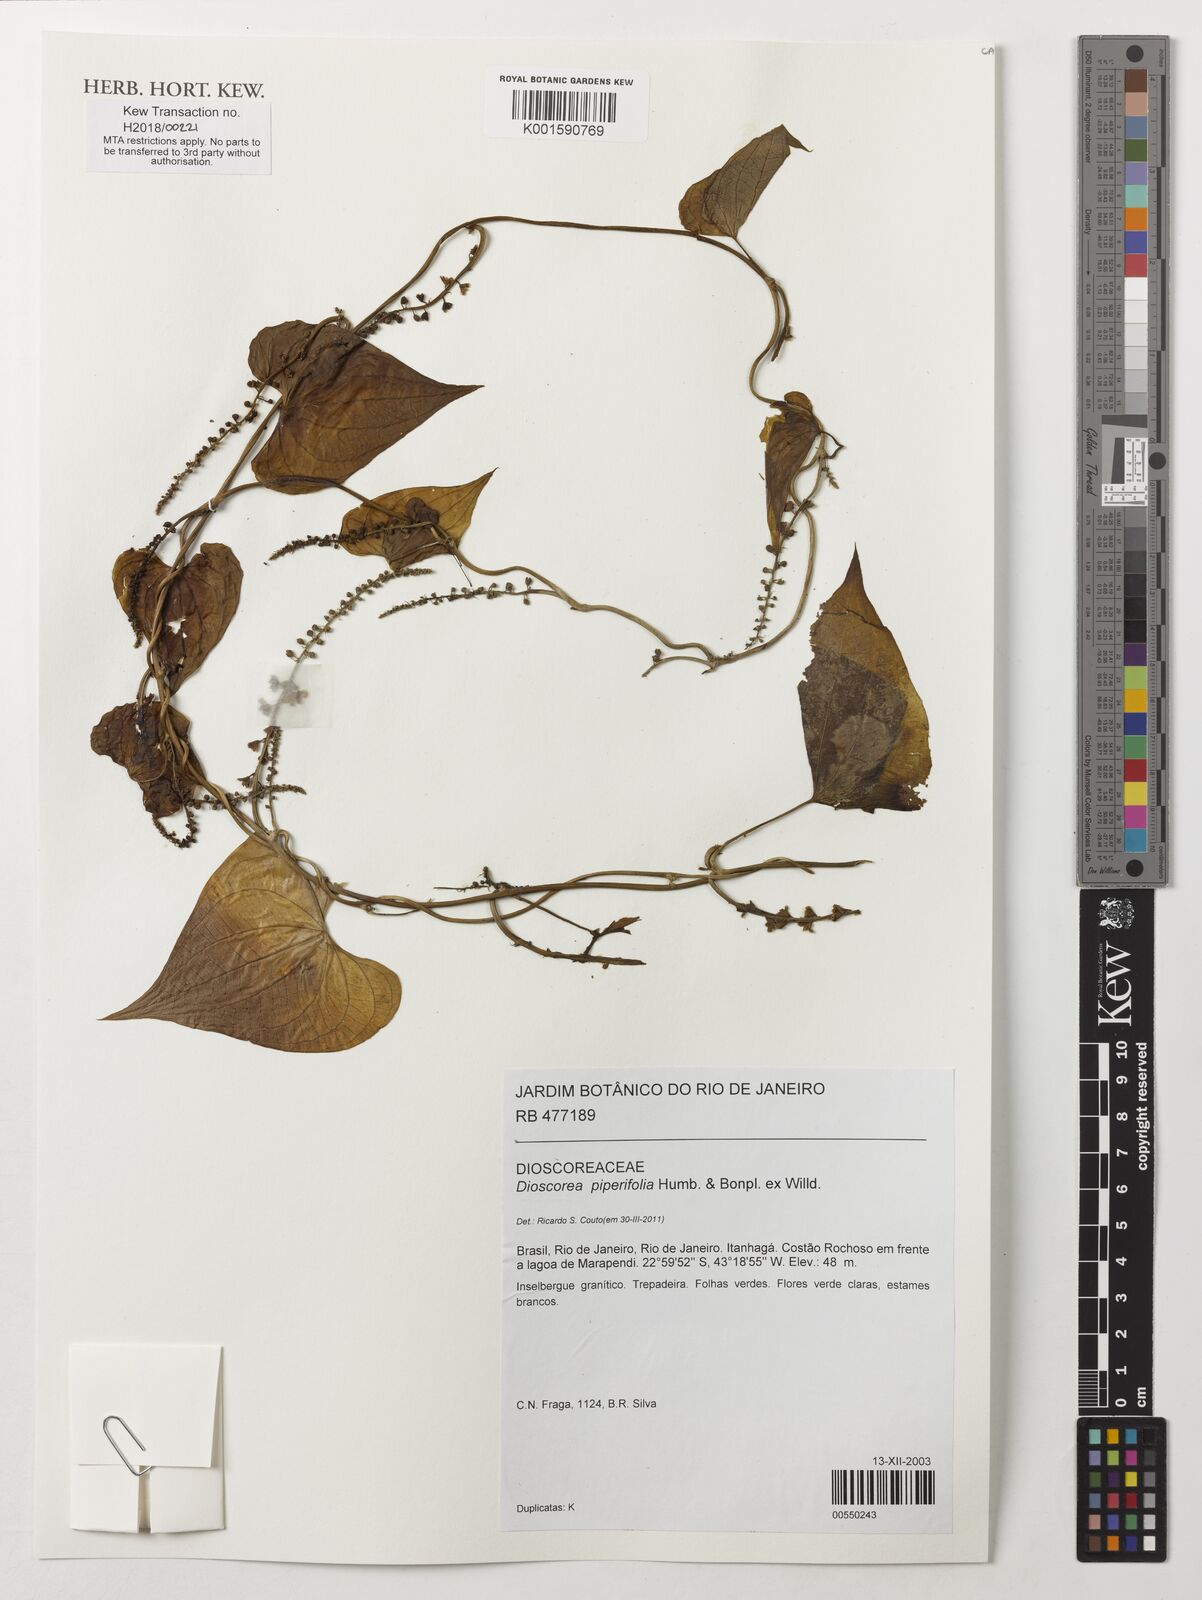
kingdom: Plantae
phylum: Tracheophyta
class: Liliopsida
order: Dioscoreales
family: Dioscoreaceae
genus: Dioscorea
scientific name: Dioscorea piperifolia
